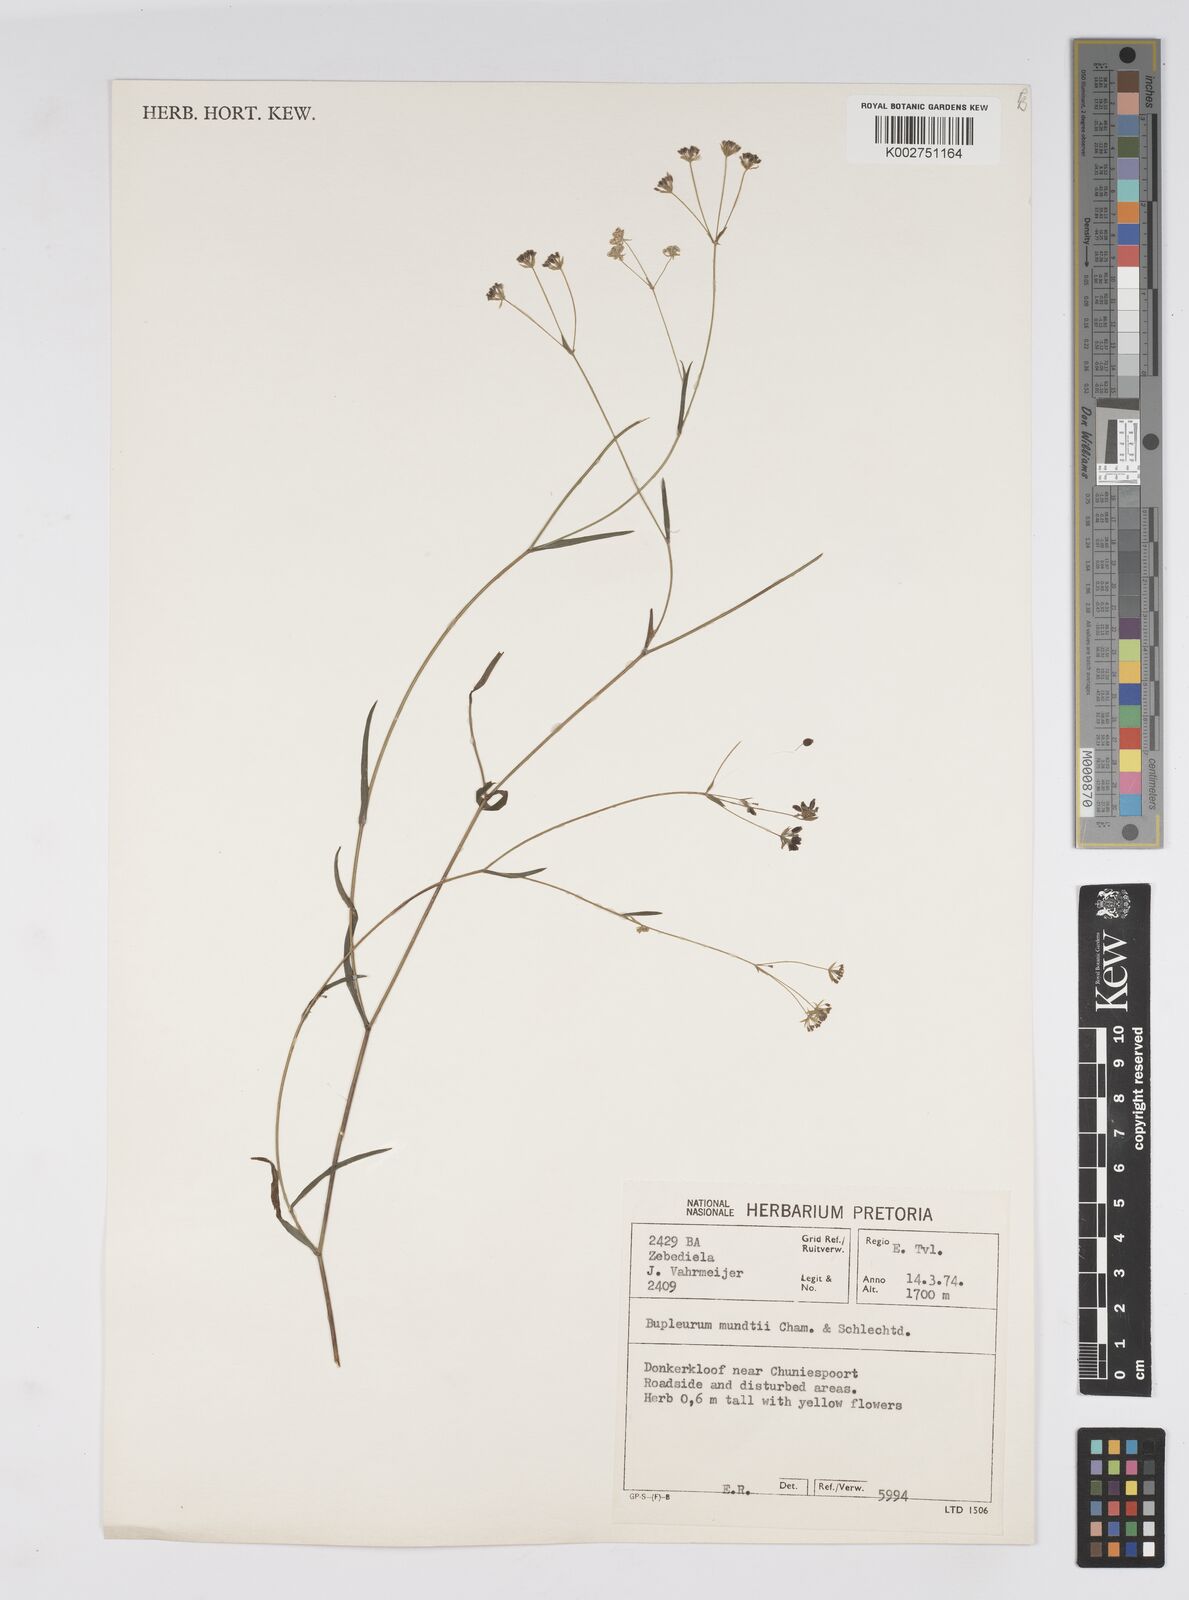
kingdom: Plantae
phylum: Tracheophyta
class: Magnoliopsida
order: Apiales
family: Apiaceae
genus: Bupleurum
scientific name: Bupleurum mundii
